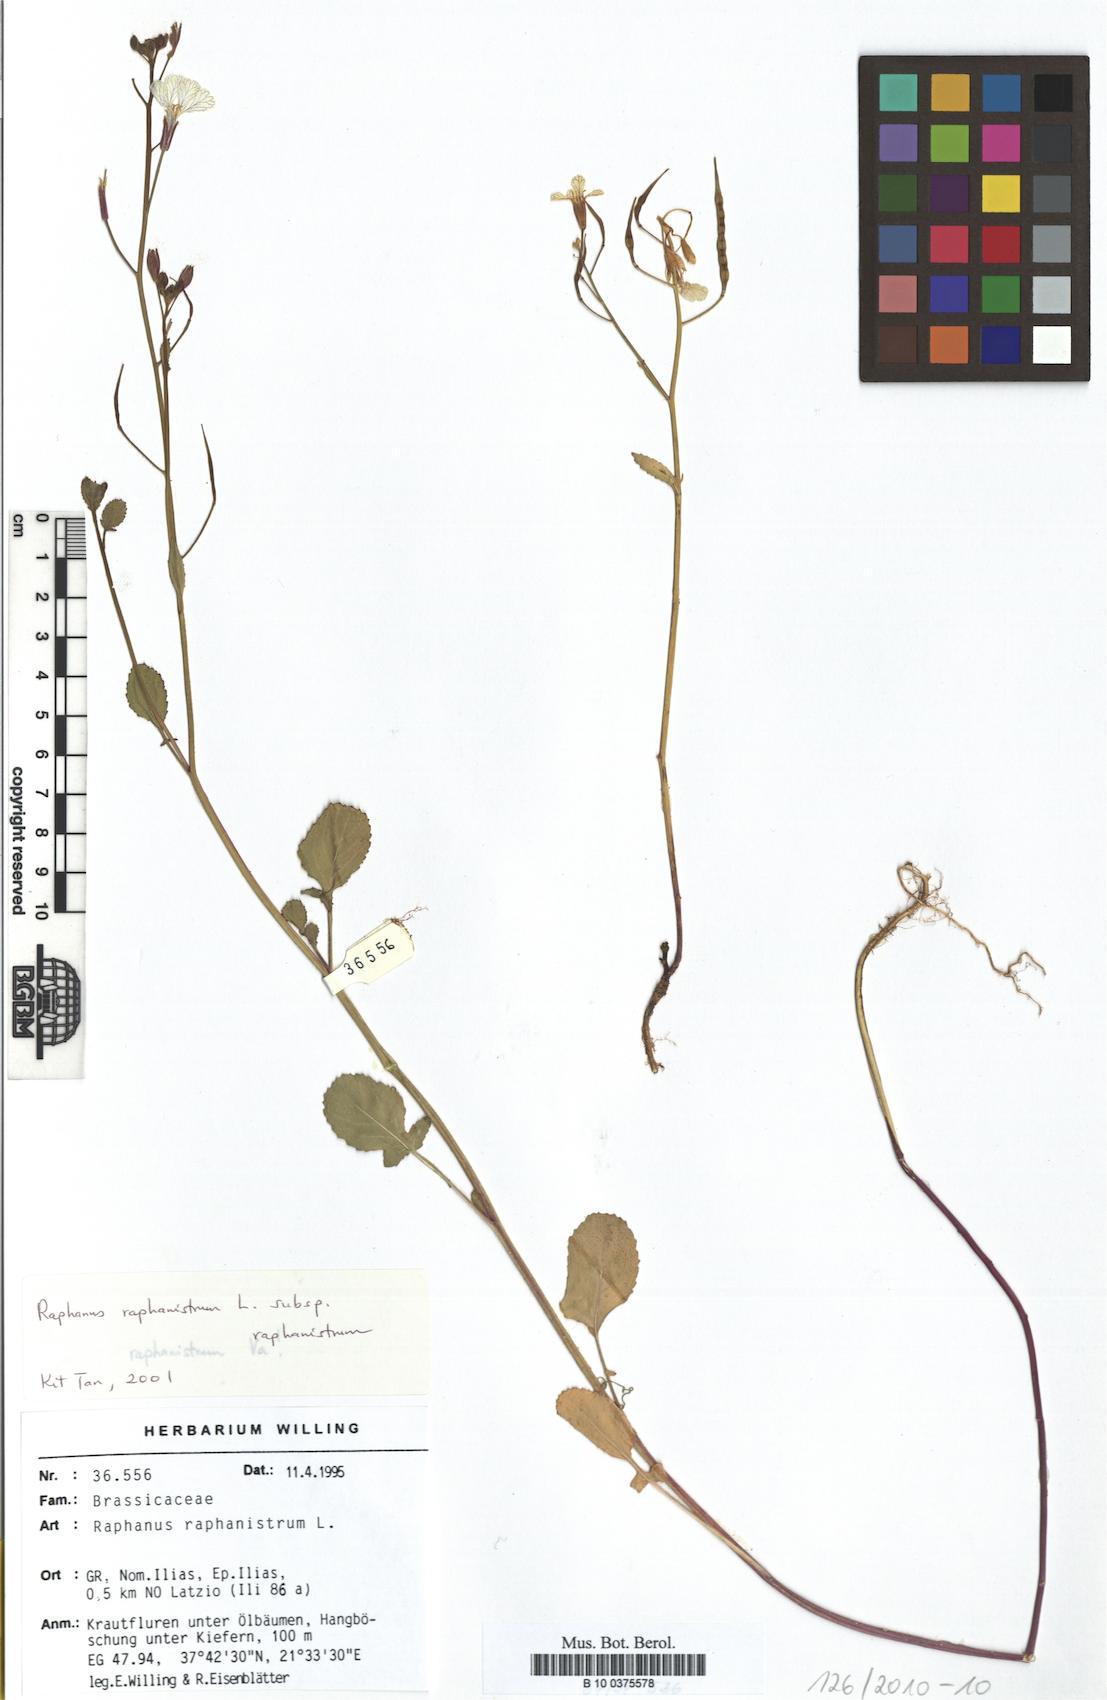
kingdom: Plantae
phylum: Tracheophyta
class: Magnoliopsida
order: Brassicales
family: Brassicaceae
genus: Raphanus
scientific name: Raphanus raphanistrum
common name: Wild radish
